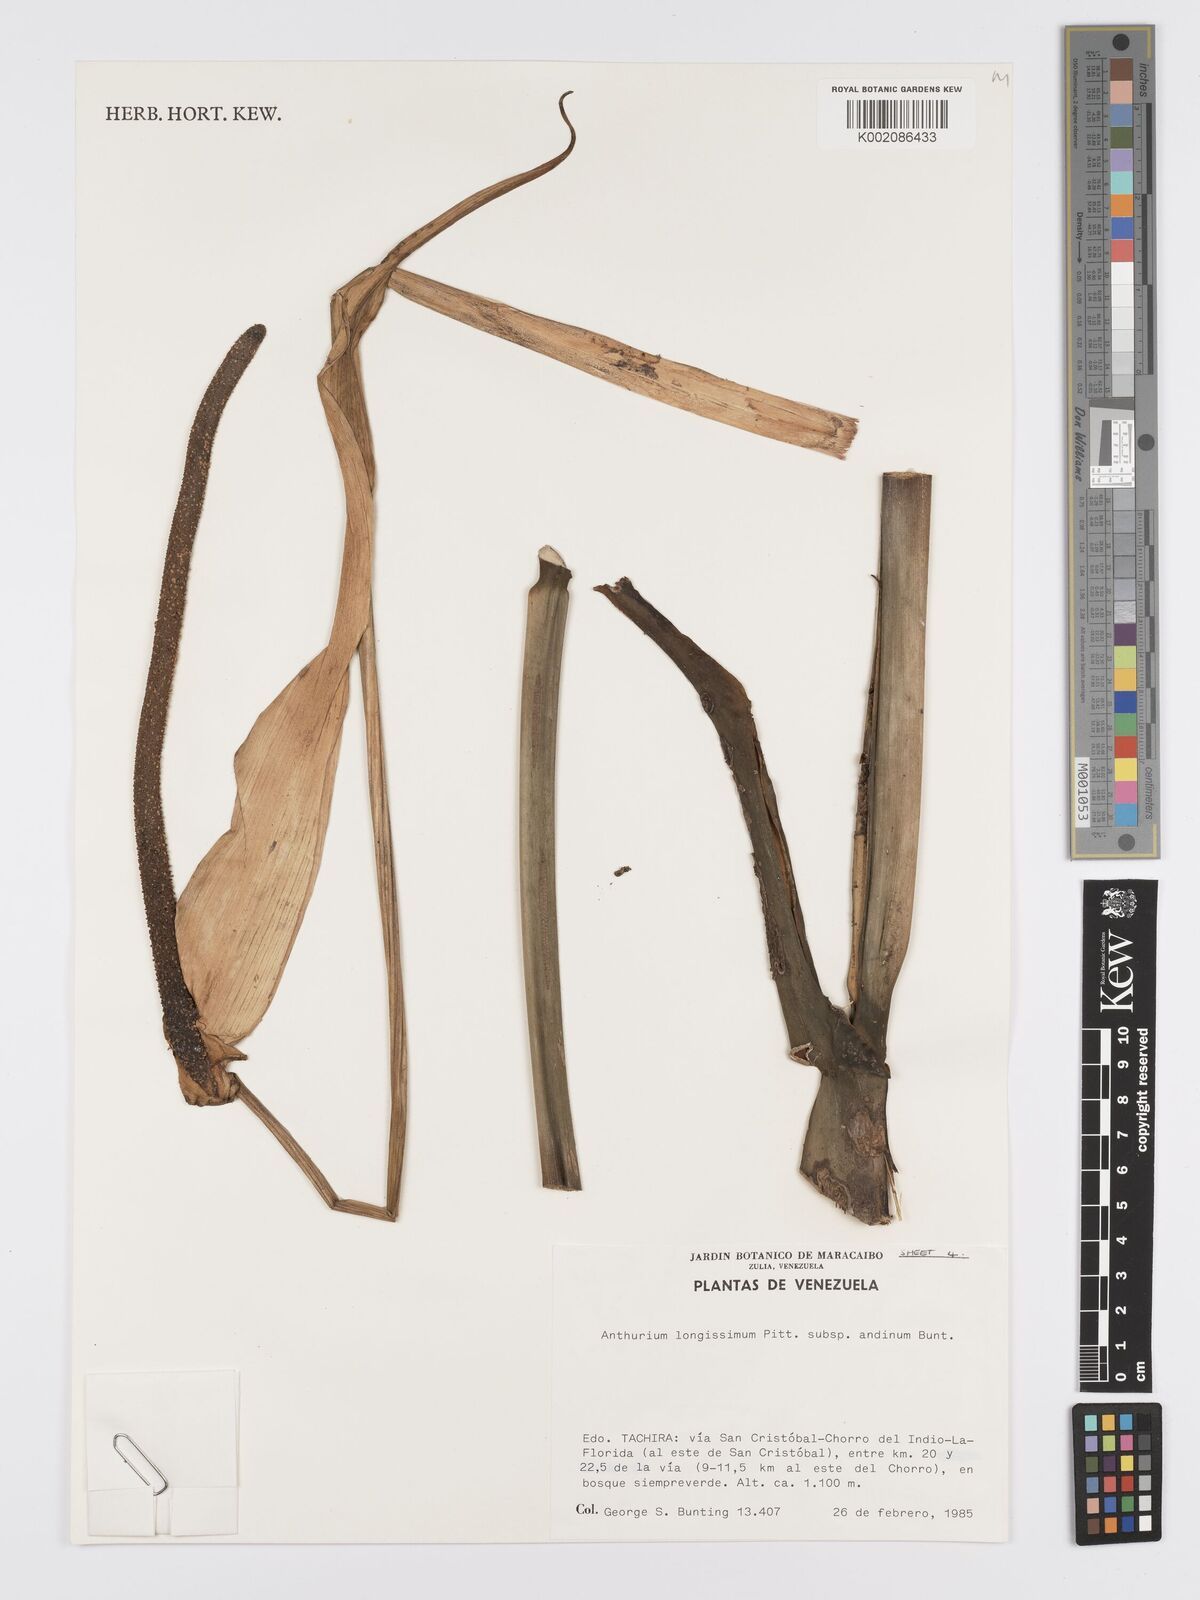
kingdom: Plantae
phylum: Tracheophyta
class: Liliopsida
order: Alismatales
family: Araceae
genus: Anthurium
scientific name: Anthurium longissimum
